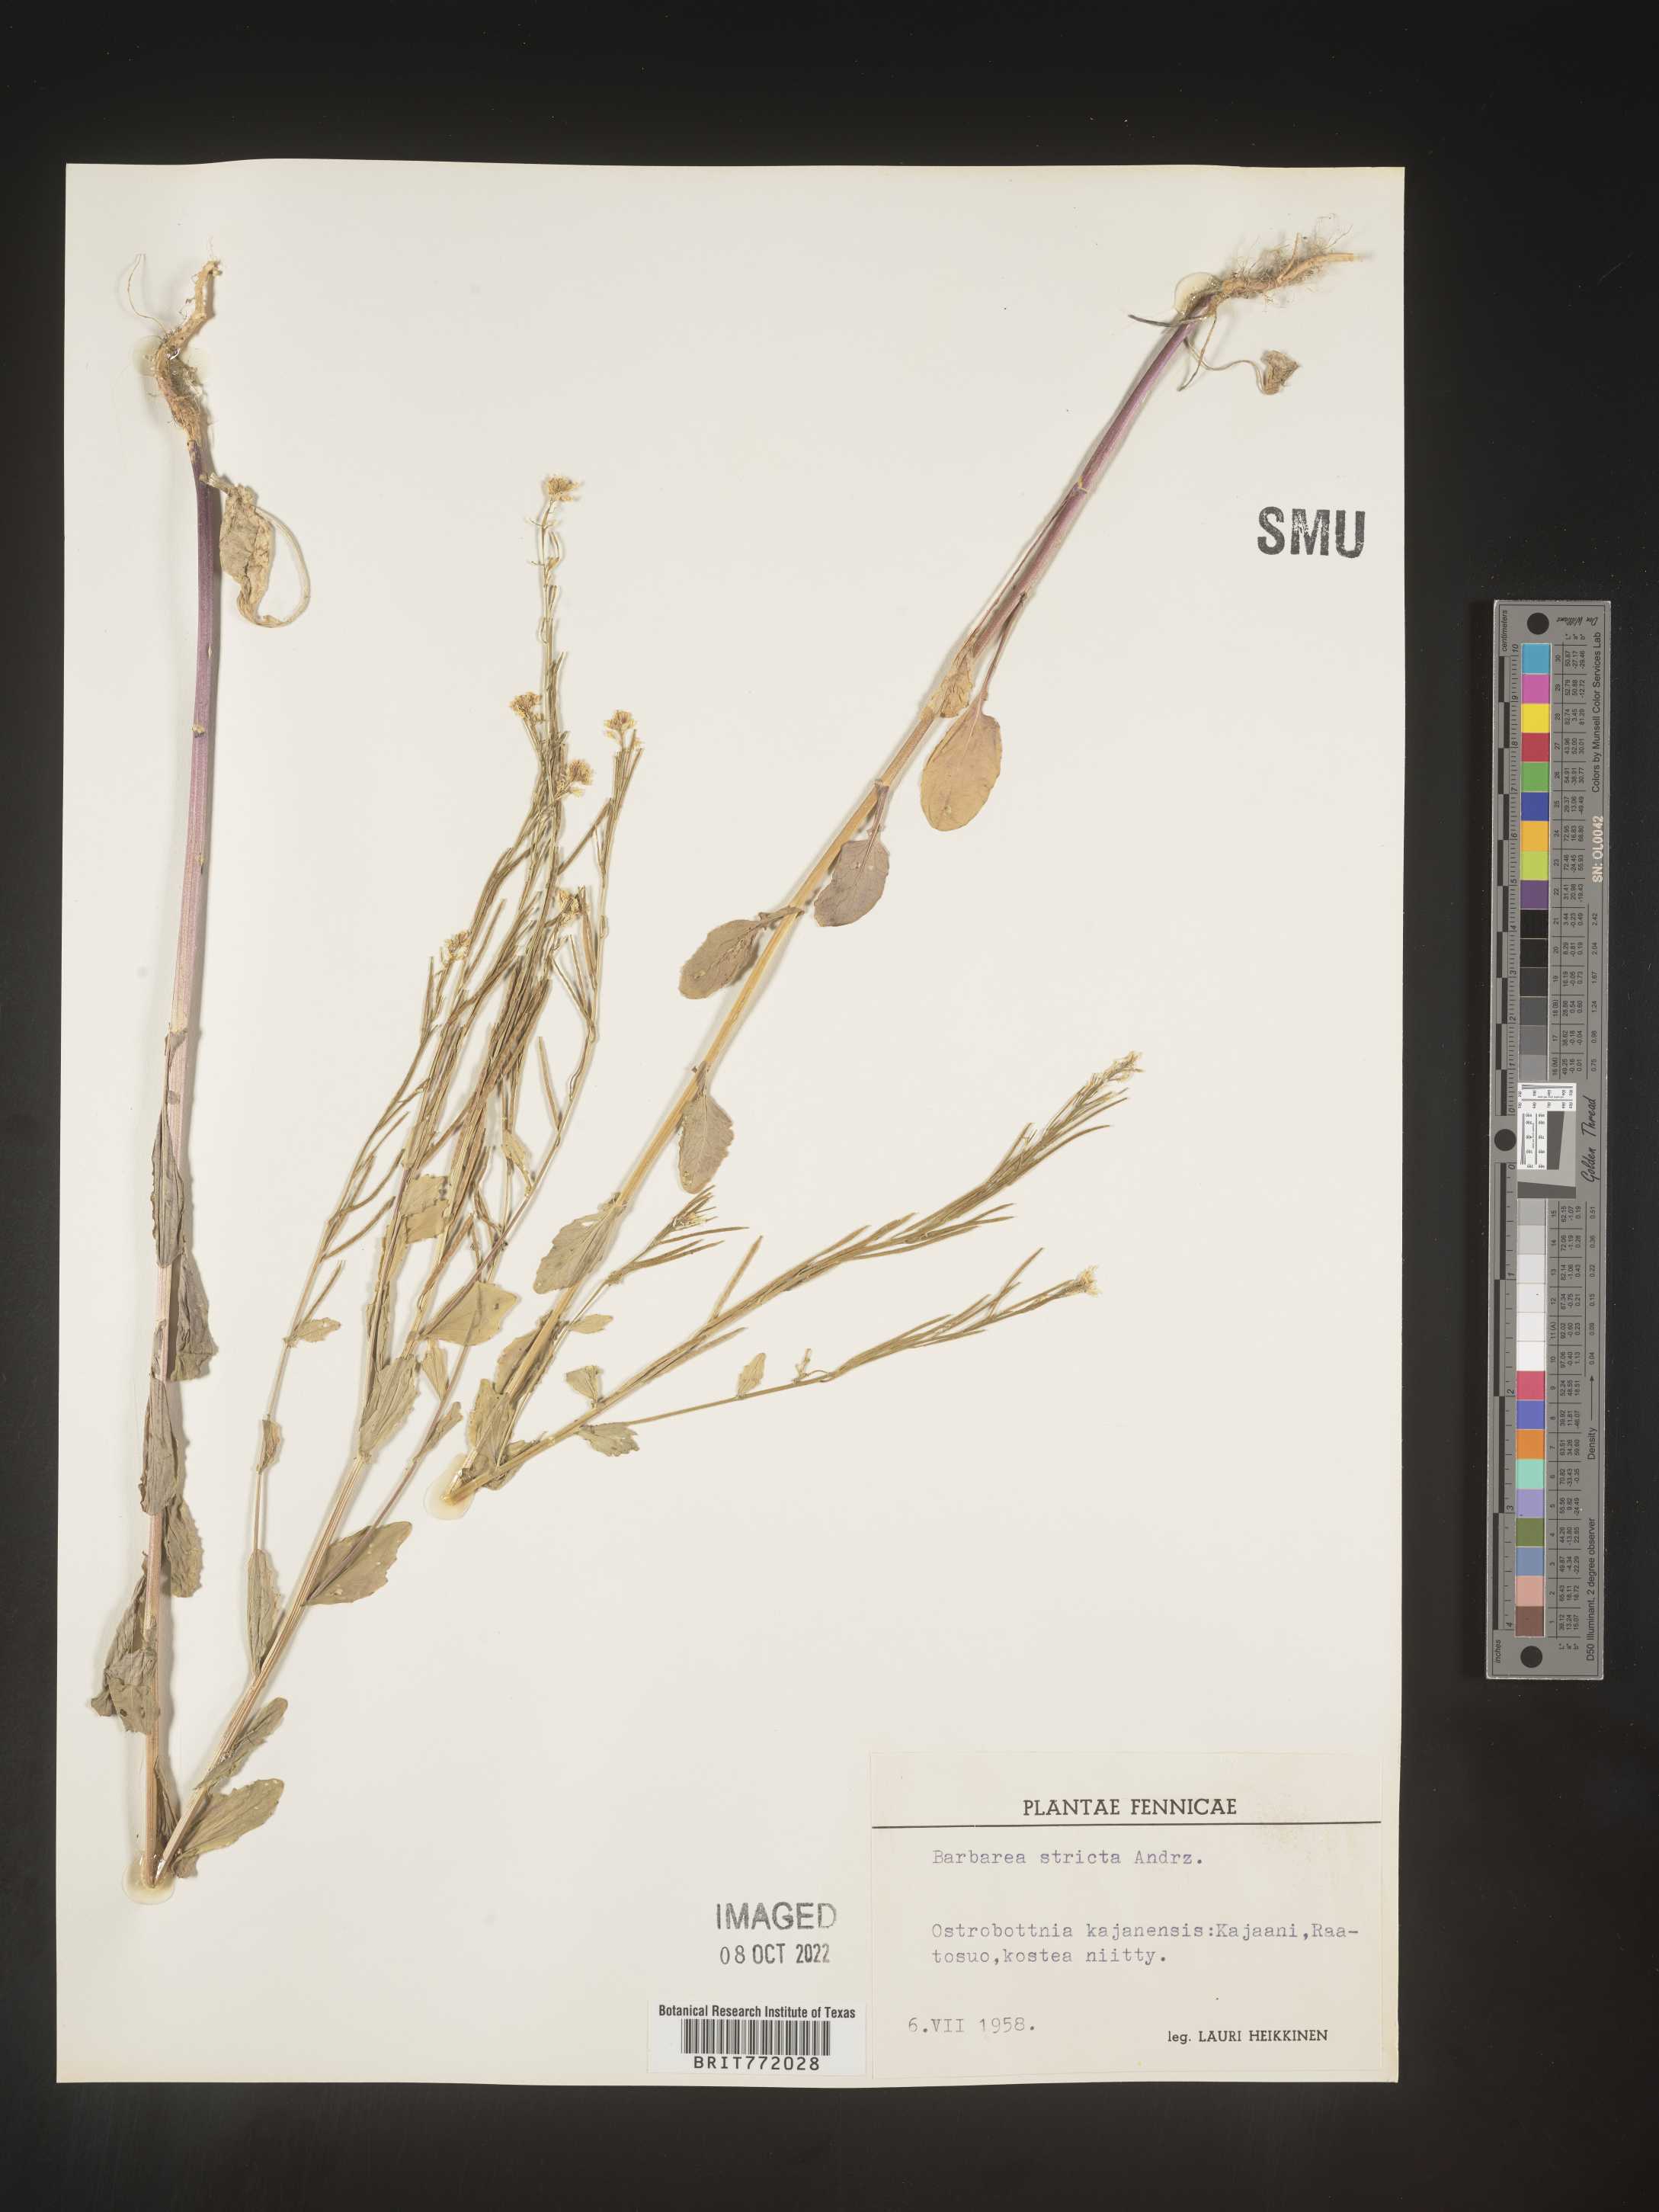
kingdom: Plantae
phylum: Tracheophyta
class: Magnoliopsida
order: Brassicales
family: Brassicaceae
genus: Barbarea
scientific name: Barbarea
